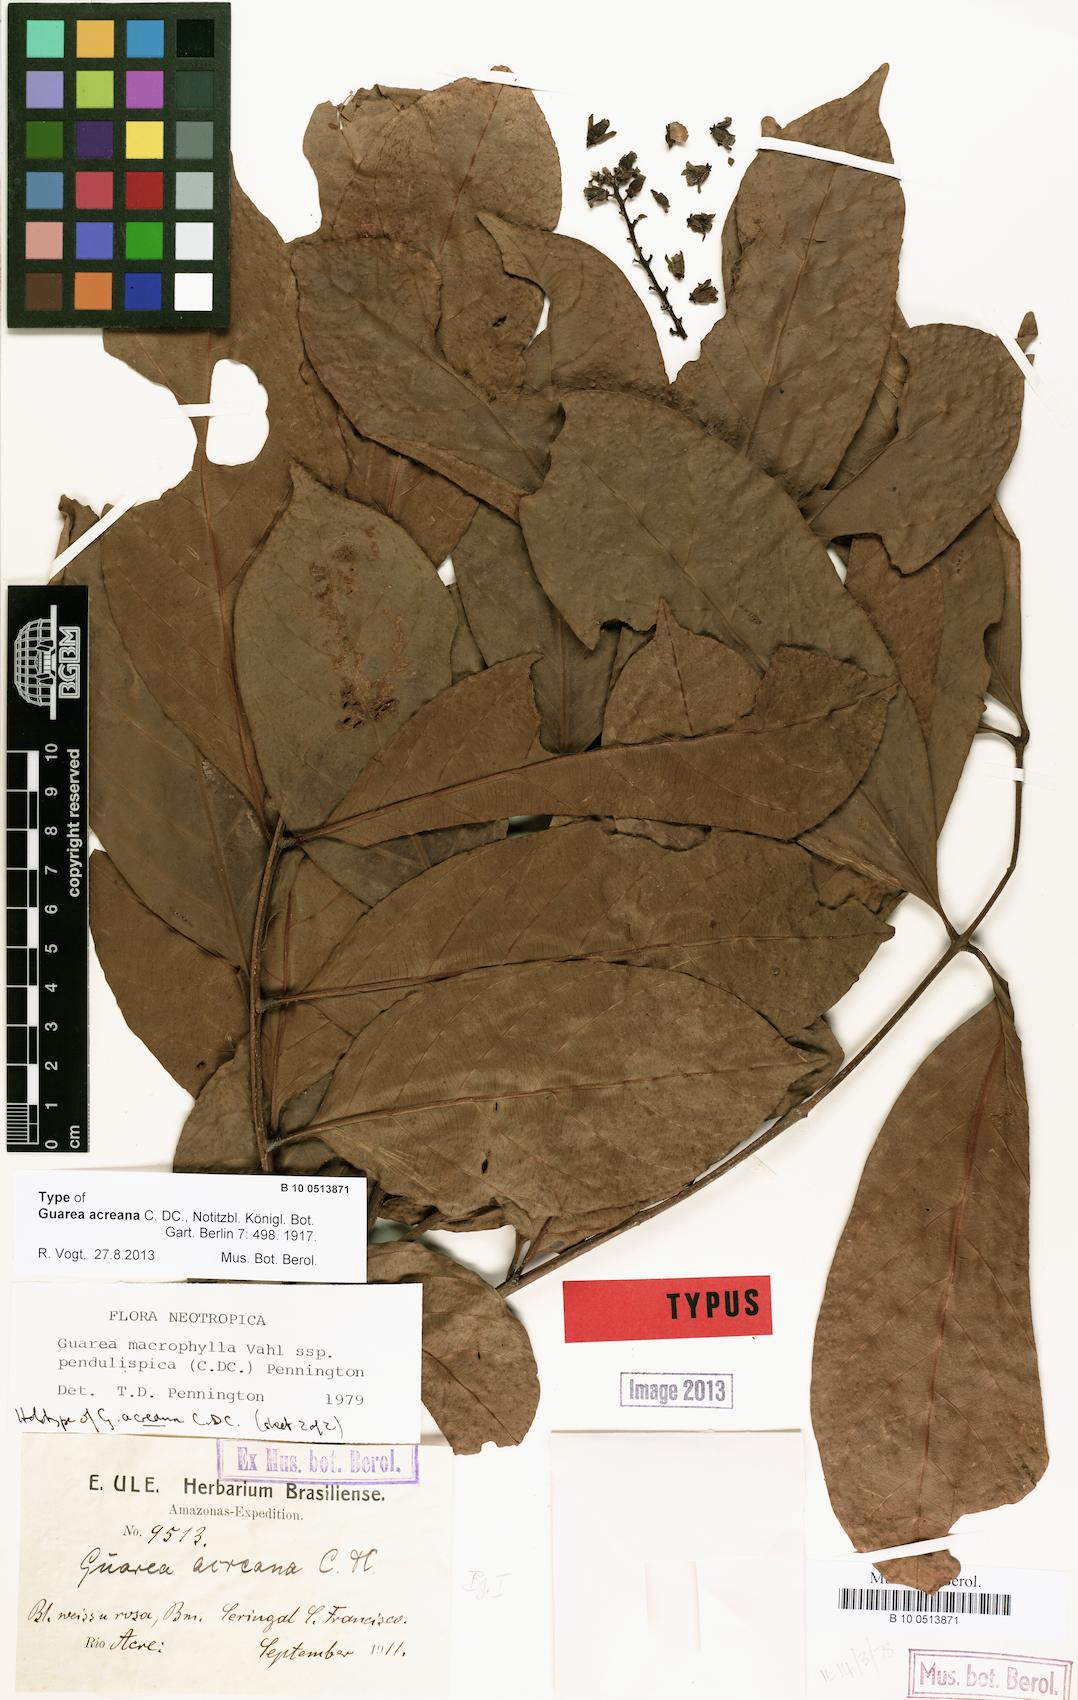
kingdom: Plantae
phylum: Tracheophyta
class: Magnoliopsida
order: Sapindales
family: Meliaceae
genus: Guarea
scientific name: Guarea macrophylla
